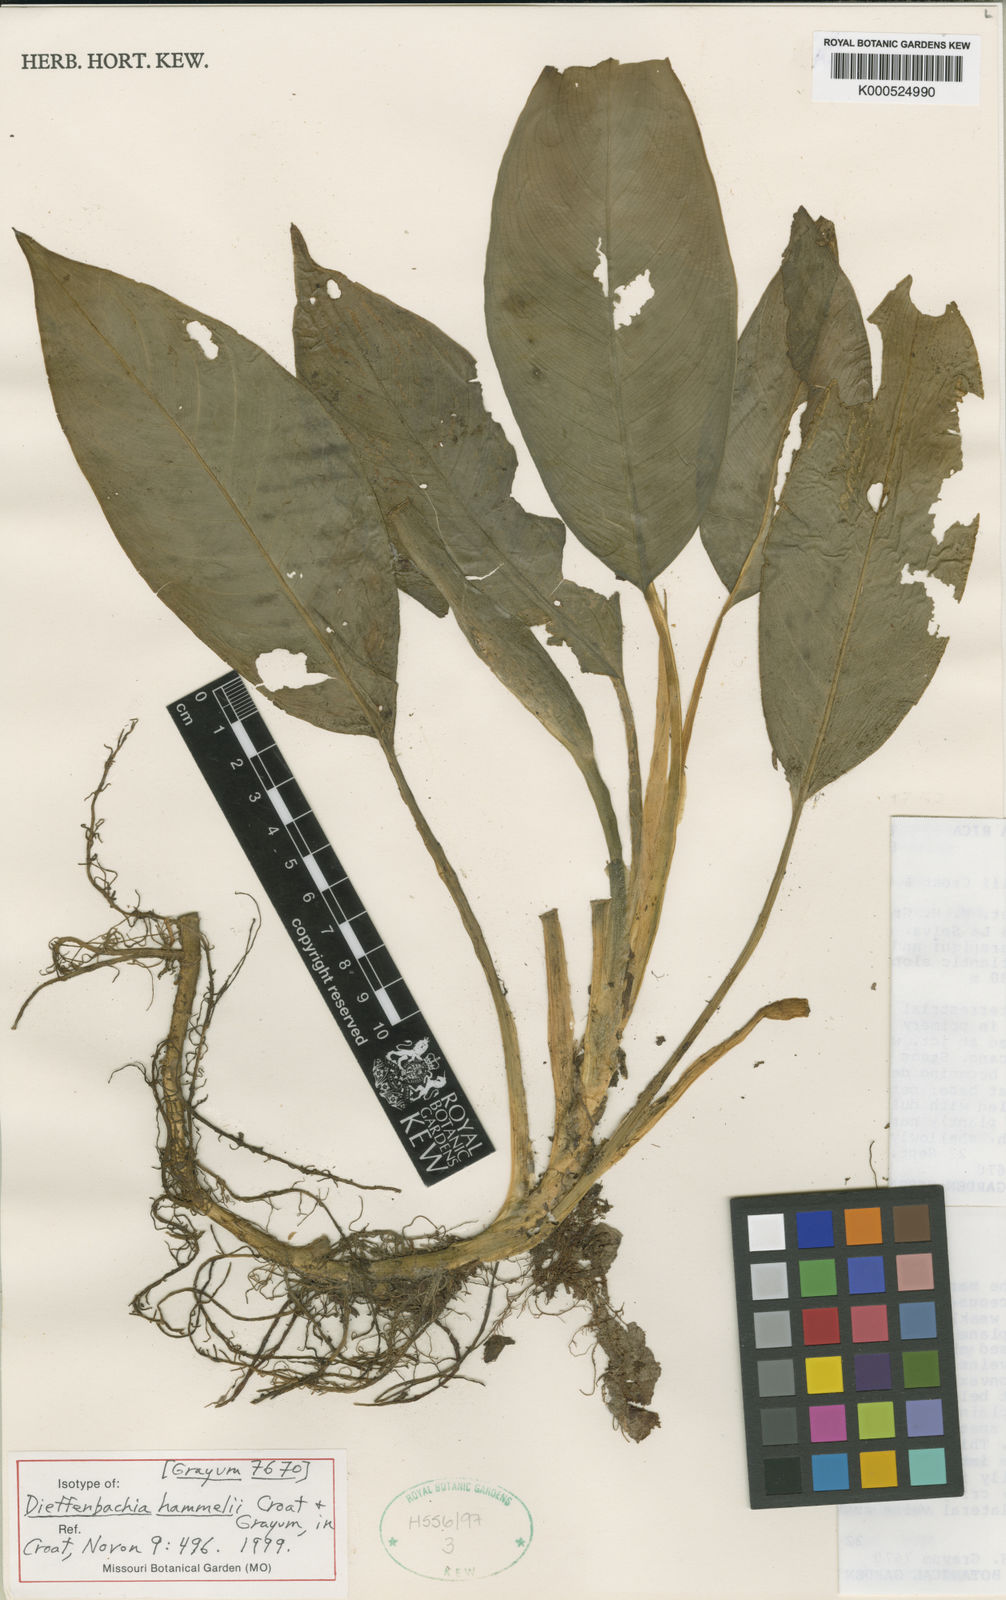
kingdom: Plantae
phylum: Tracheophyta
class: Liliopsida
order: Alismatales
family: Araceae
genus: Dieffenbachia
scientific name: Dieffenbachia hammelii
